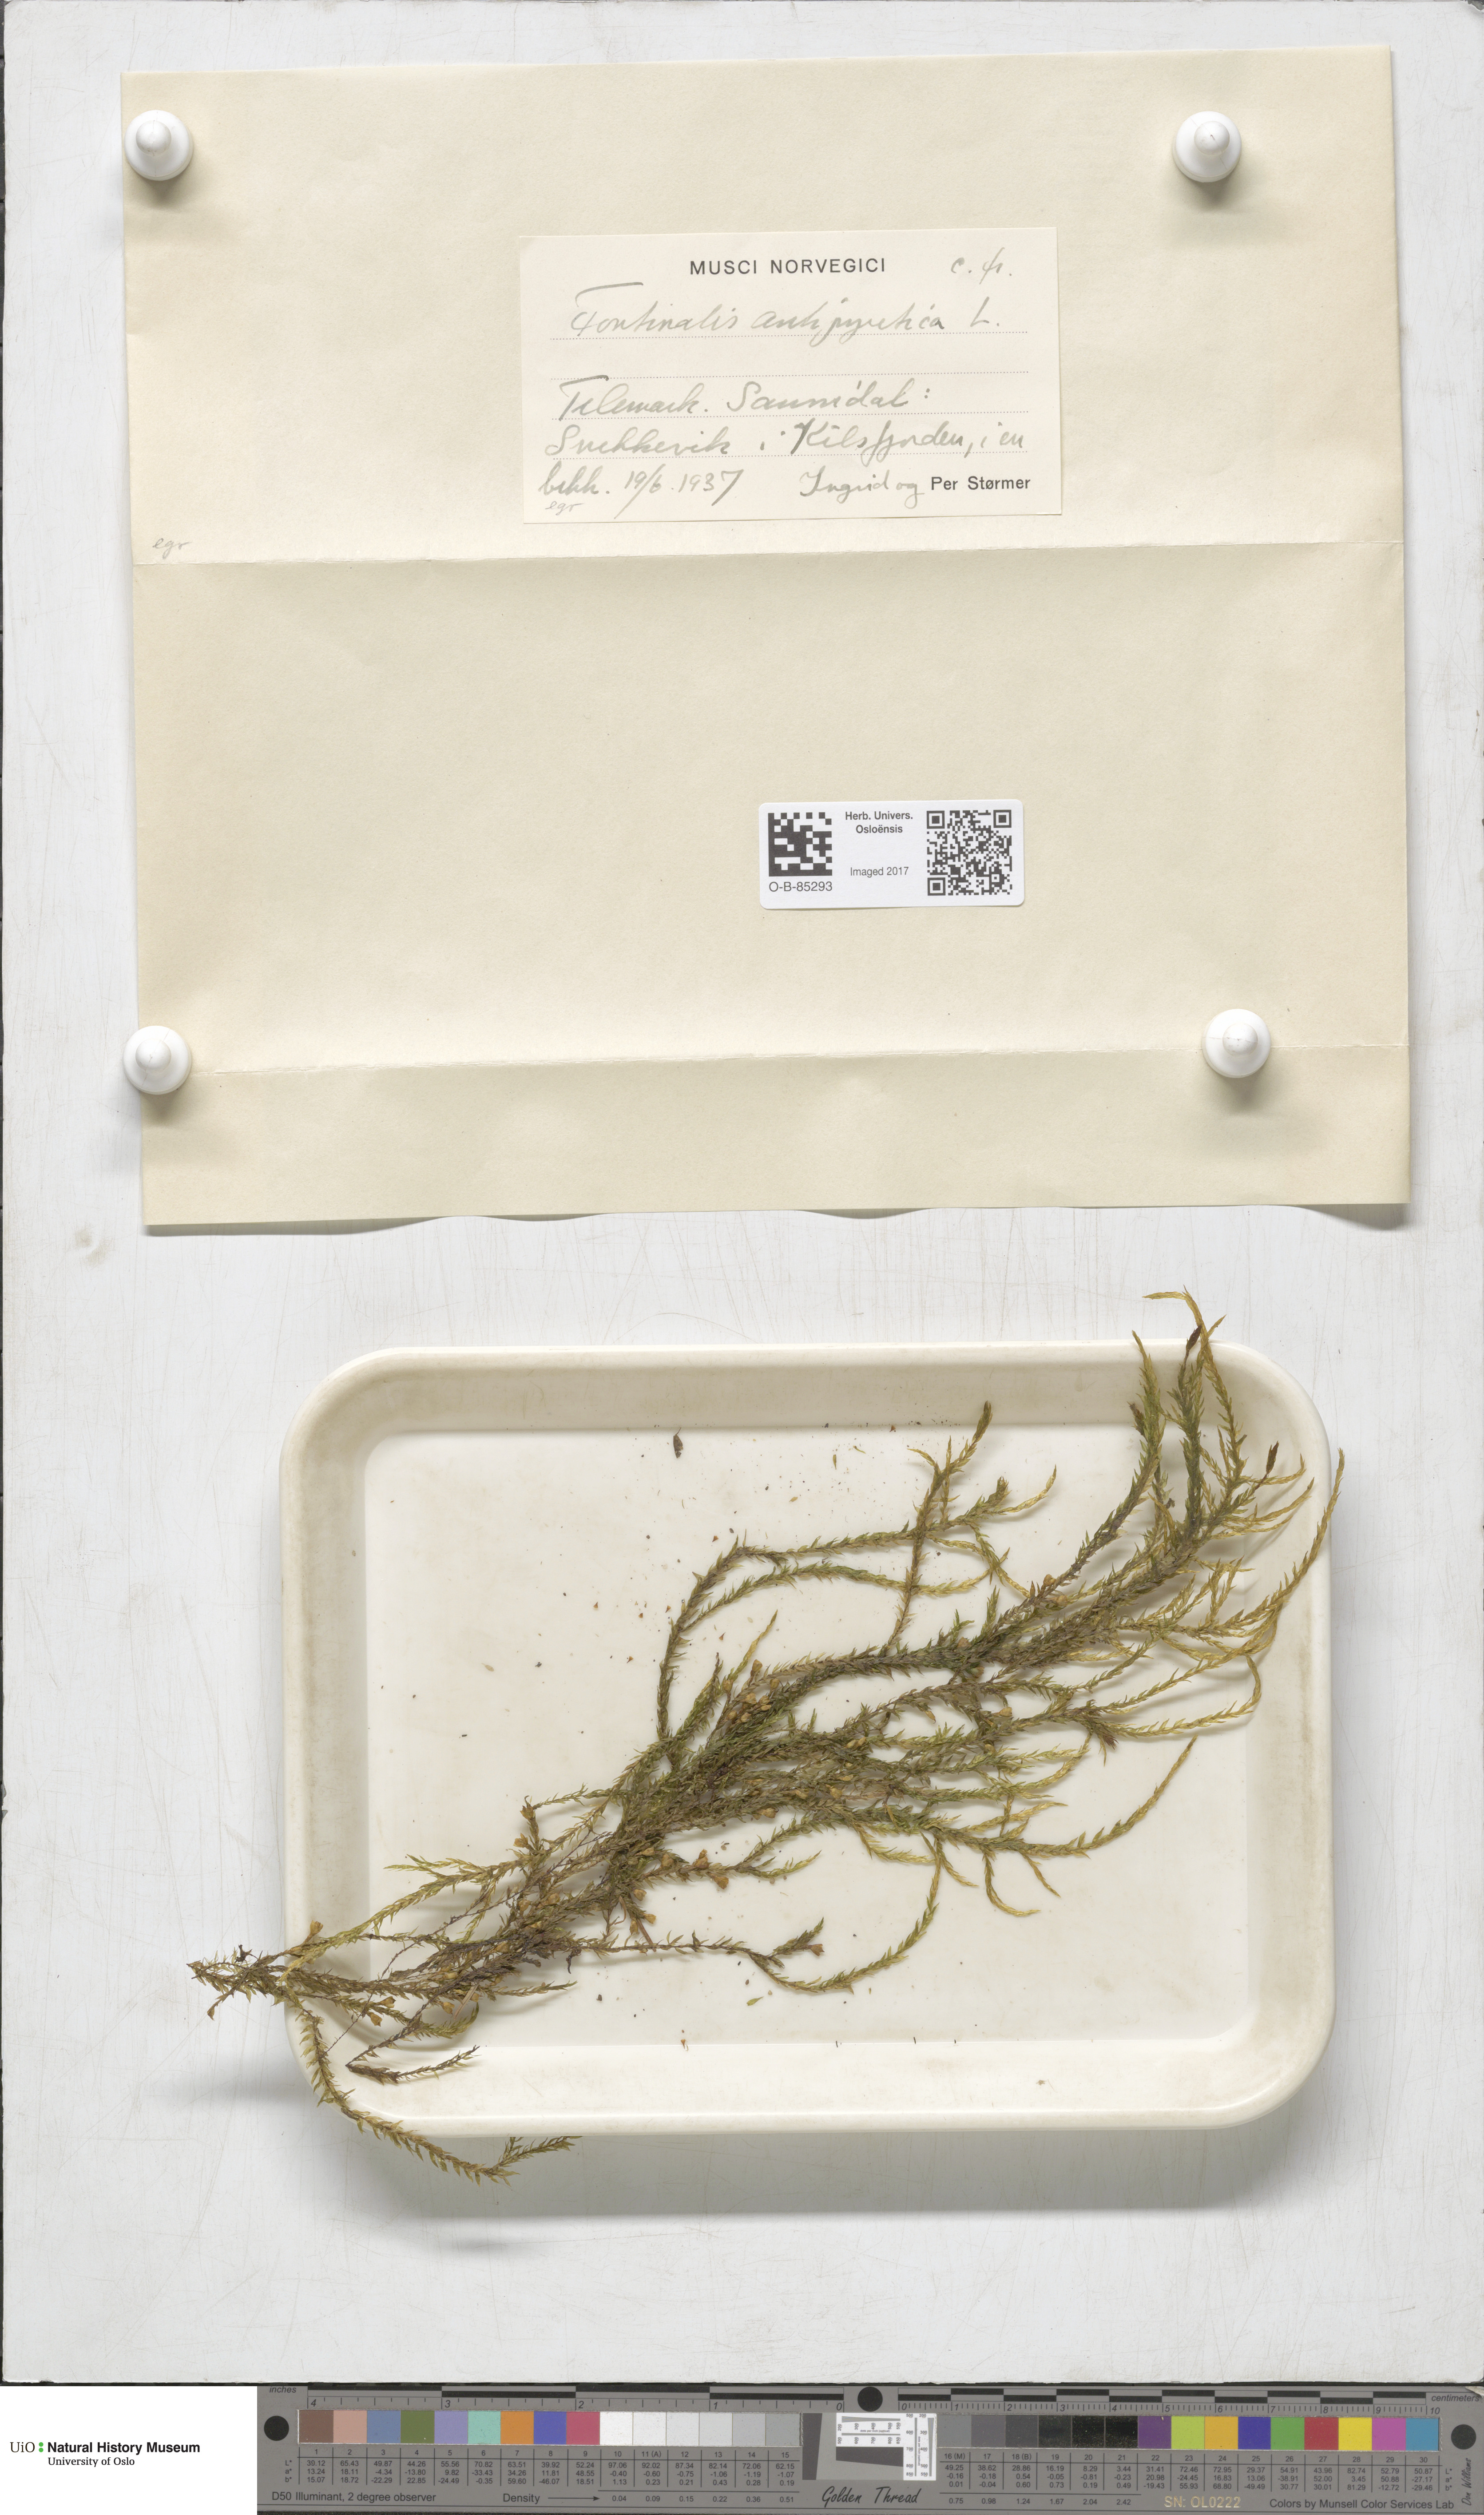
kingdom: Plantae
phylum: Bryophyta
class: Bryopsida
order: Hypnales
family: Fontinalaceae
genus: Fontinalis
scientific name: Fontinalis antipyretica
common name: Greater water-moss
